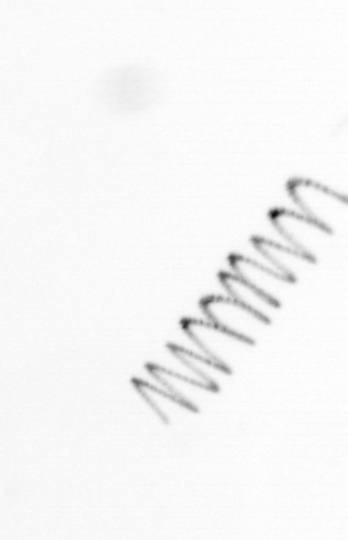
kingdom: Chromista
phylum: Ochrophyta
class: Bacillariophyceae
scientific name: Bacillariophyceae
